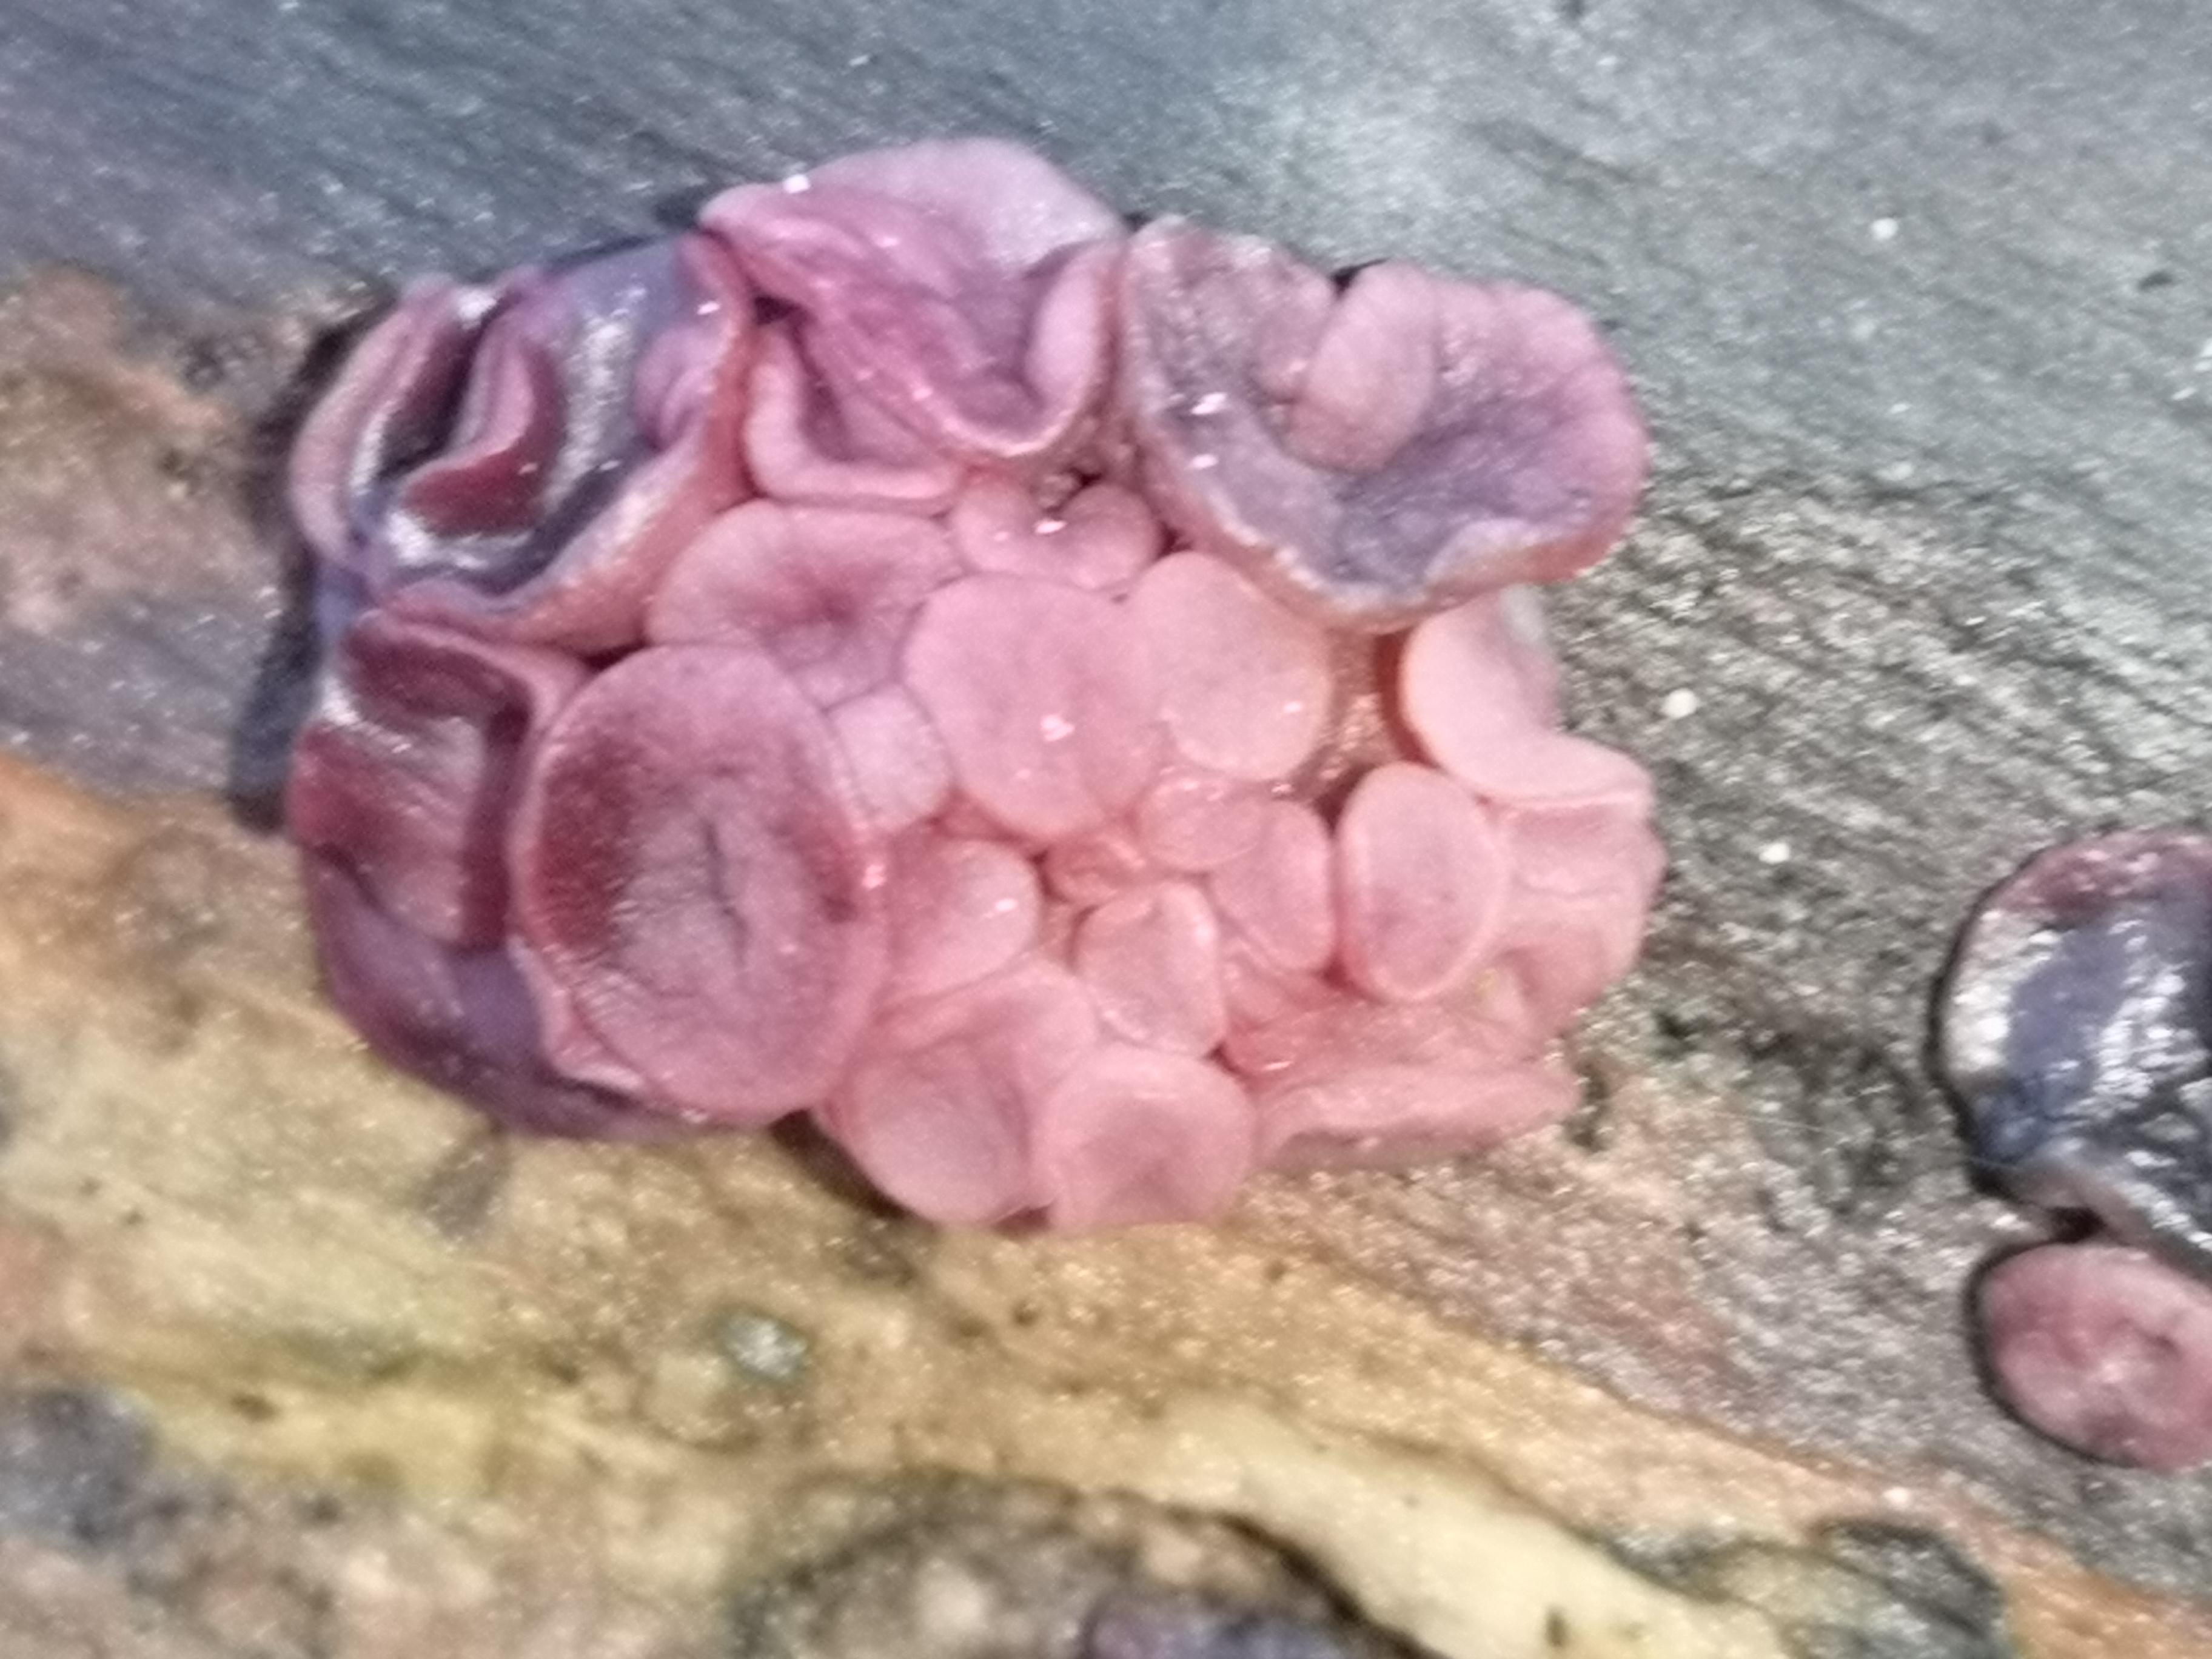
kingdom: Fungi
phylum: Ascomycota
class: Leotiomycetes
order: Helotiales
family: Gelatinodiscaceae
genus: Ascocoryne
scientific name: Ascocoryne cylichnium
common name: stor sejskive
